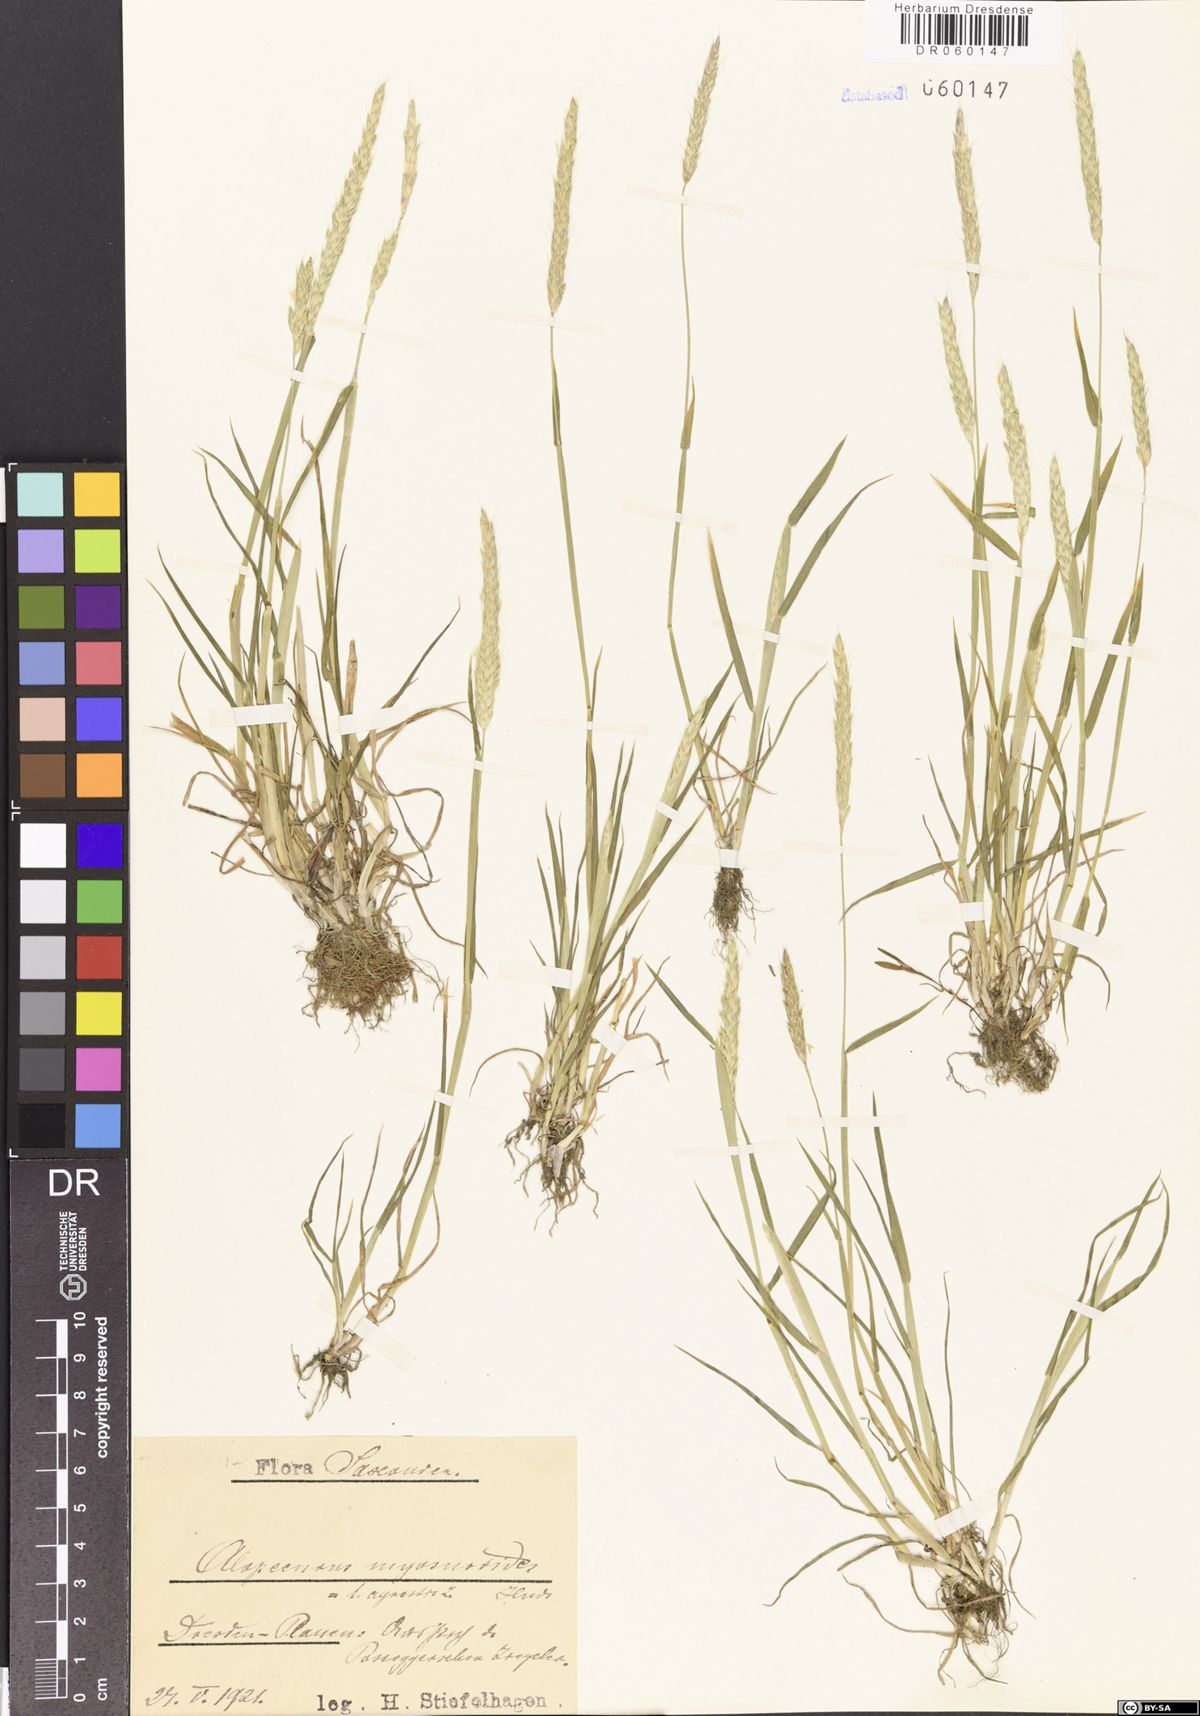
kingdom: Plantae
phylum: Tracheophyta
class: Liliopsida
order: Poales
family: Poaceae
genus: Alopecurus
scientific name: Alopecurus myosuroides
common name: Black-grass
